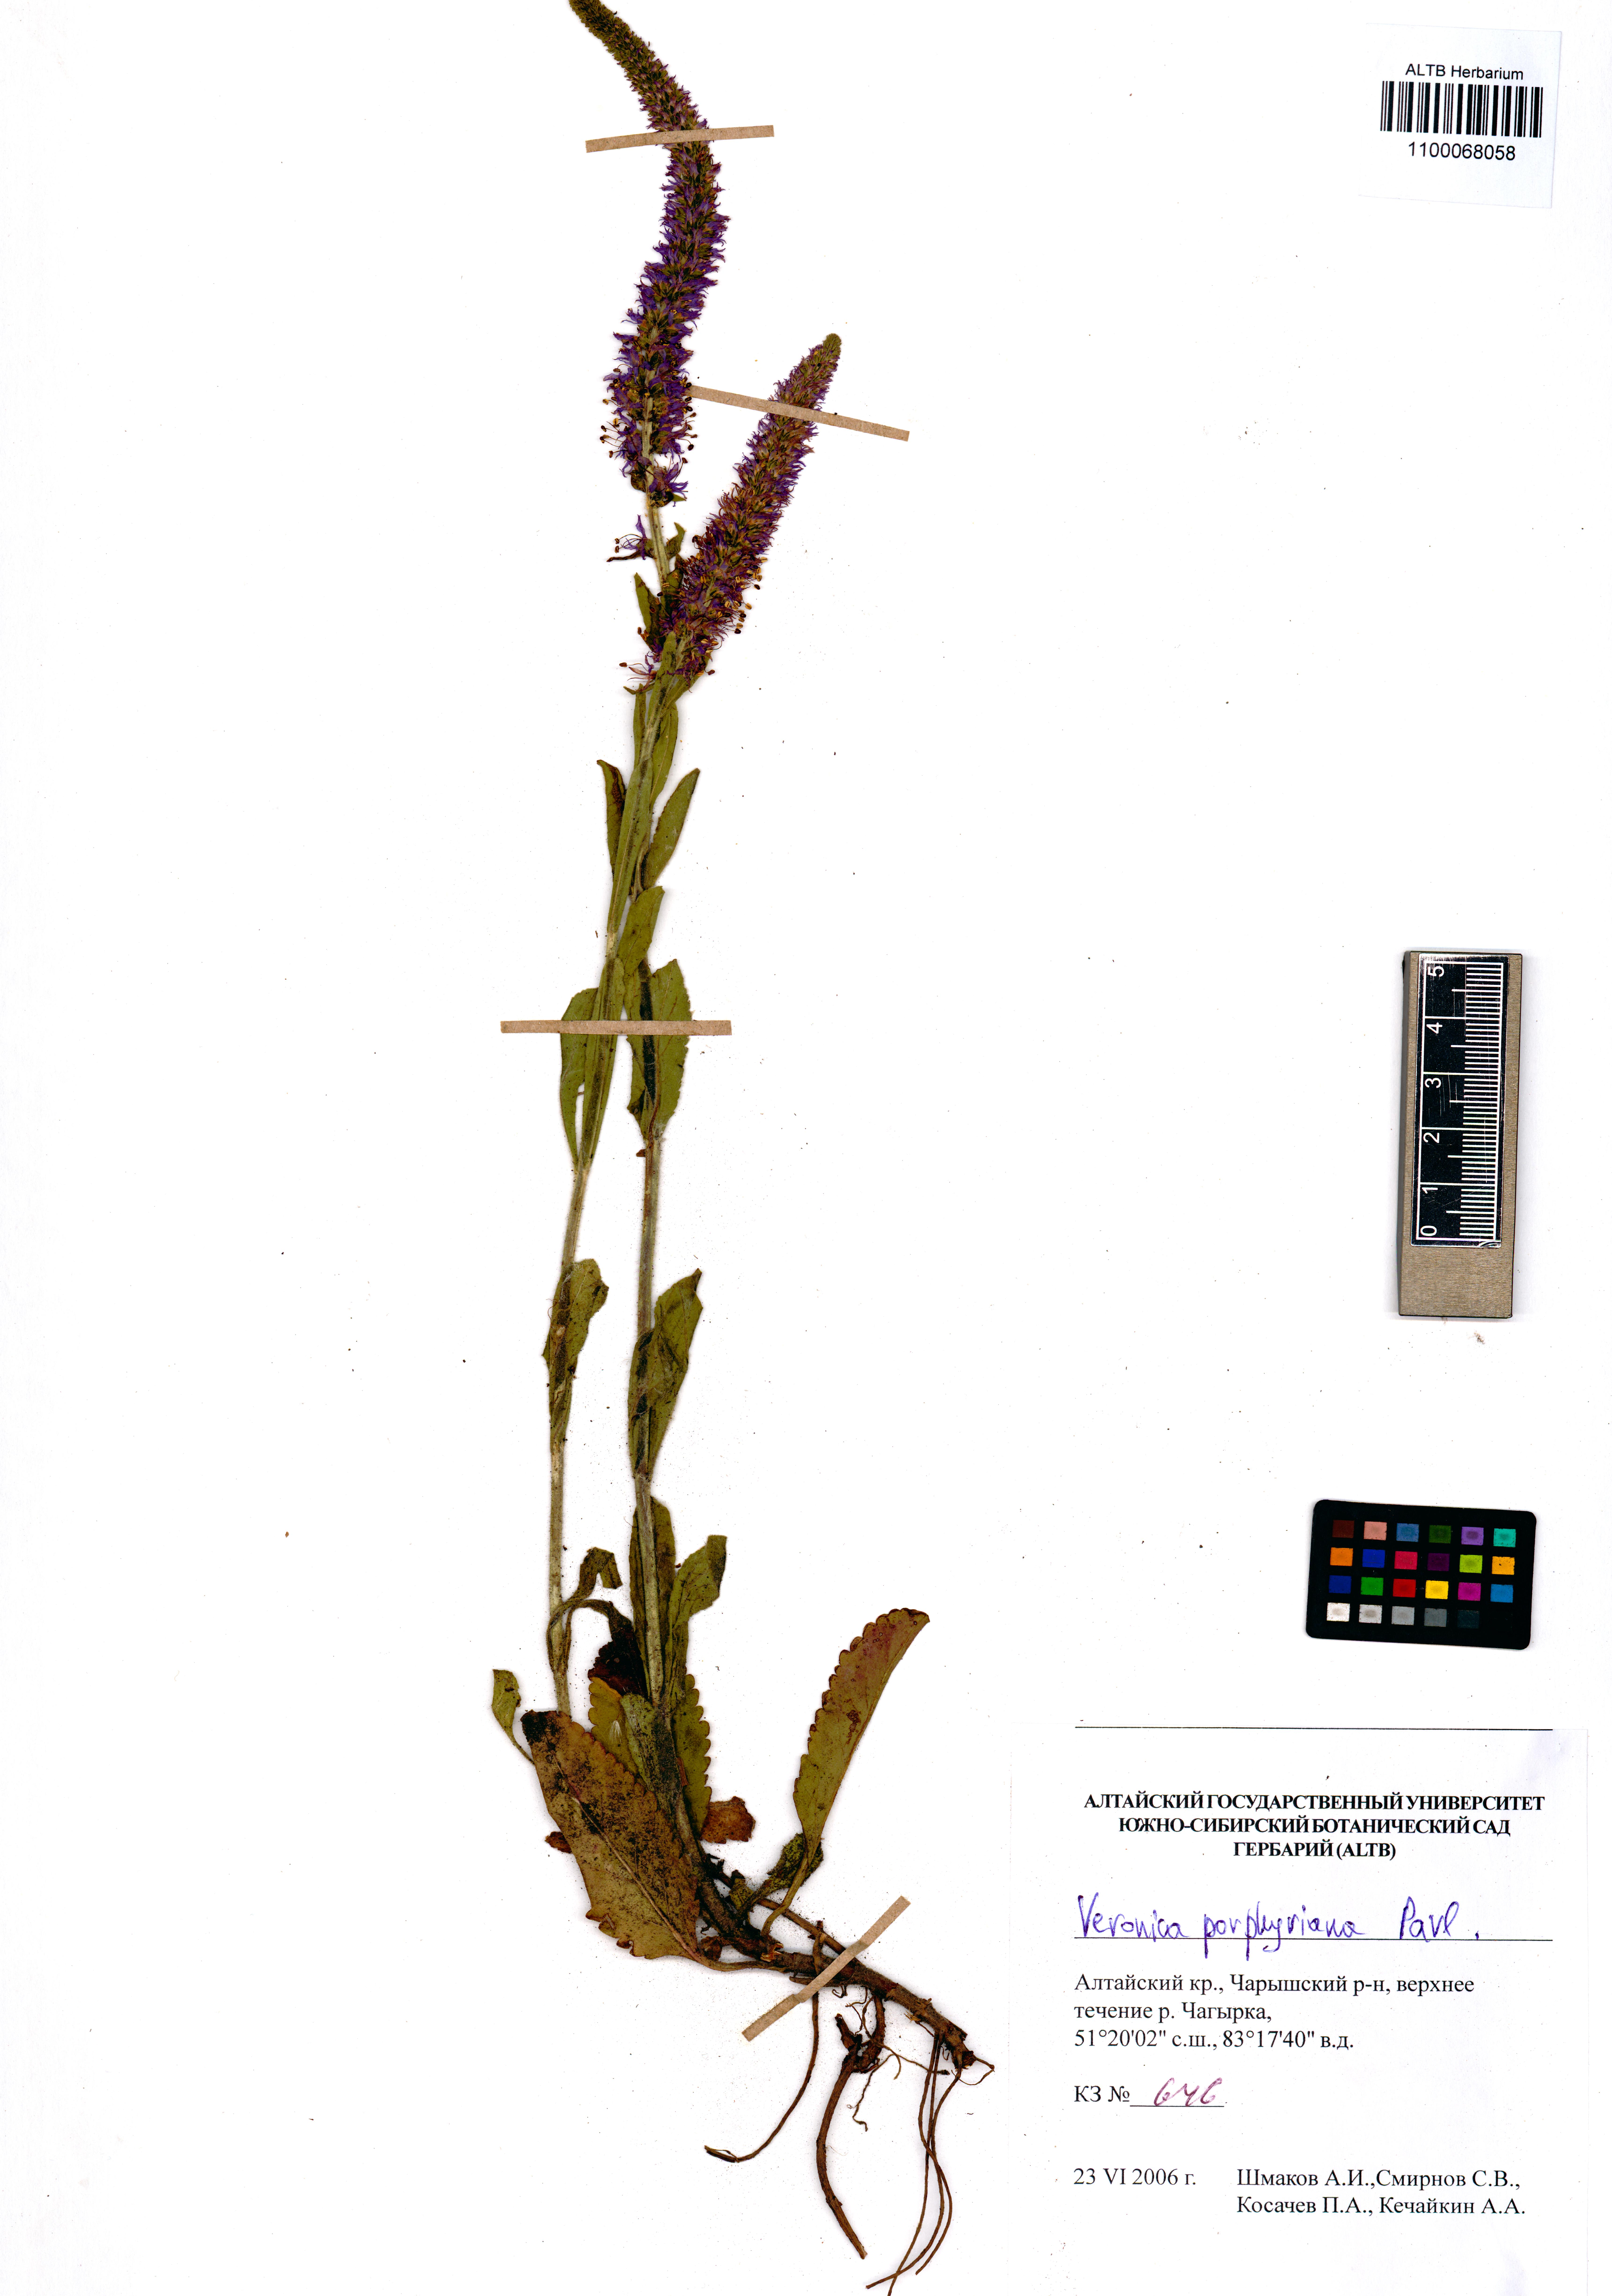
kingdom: Plantae
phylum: Tracheophyta
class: Magnoliopsida
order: Lamiales
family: Plantaginaceae
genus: Veronica
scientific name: Veronica porphyriana
